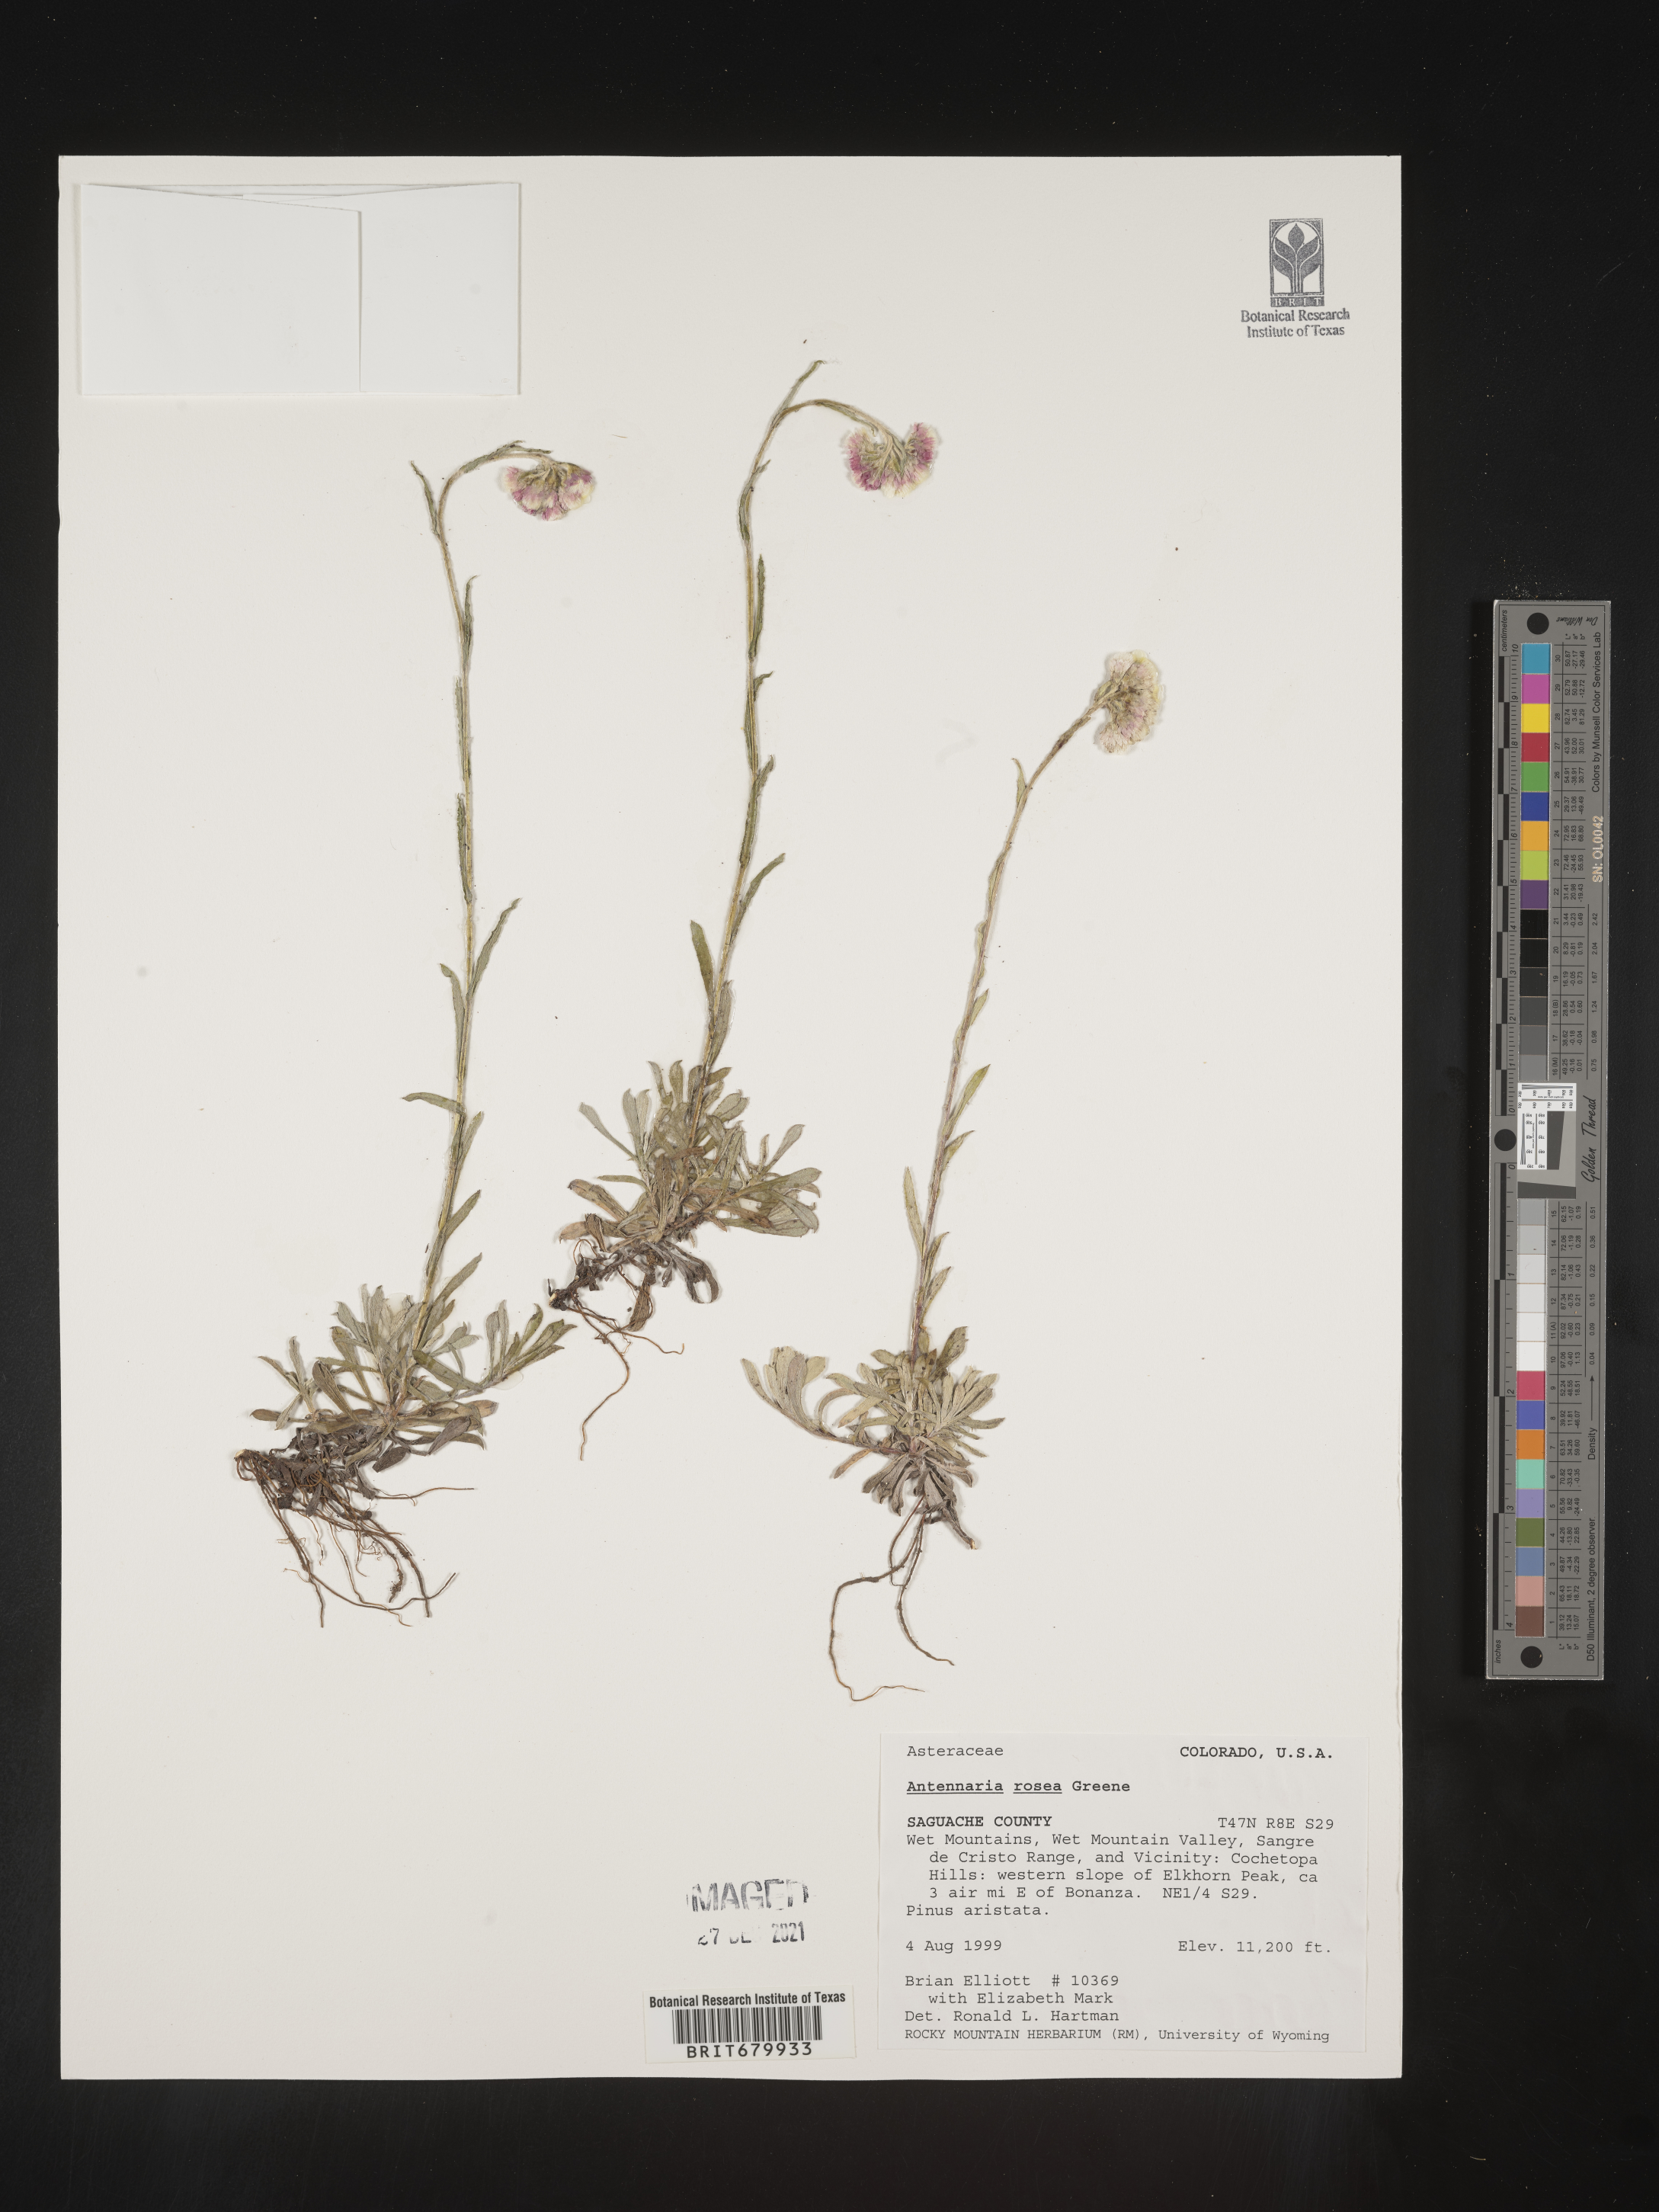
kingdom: Plantae
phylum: Tracheophyta
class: Magnoliopsida
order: Asterales
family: Asteraceae
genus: Antennaria
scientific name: Antennaria rosea
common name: Rosy pussytoes
